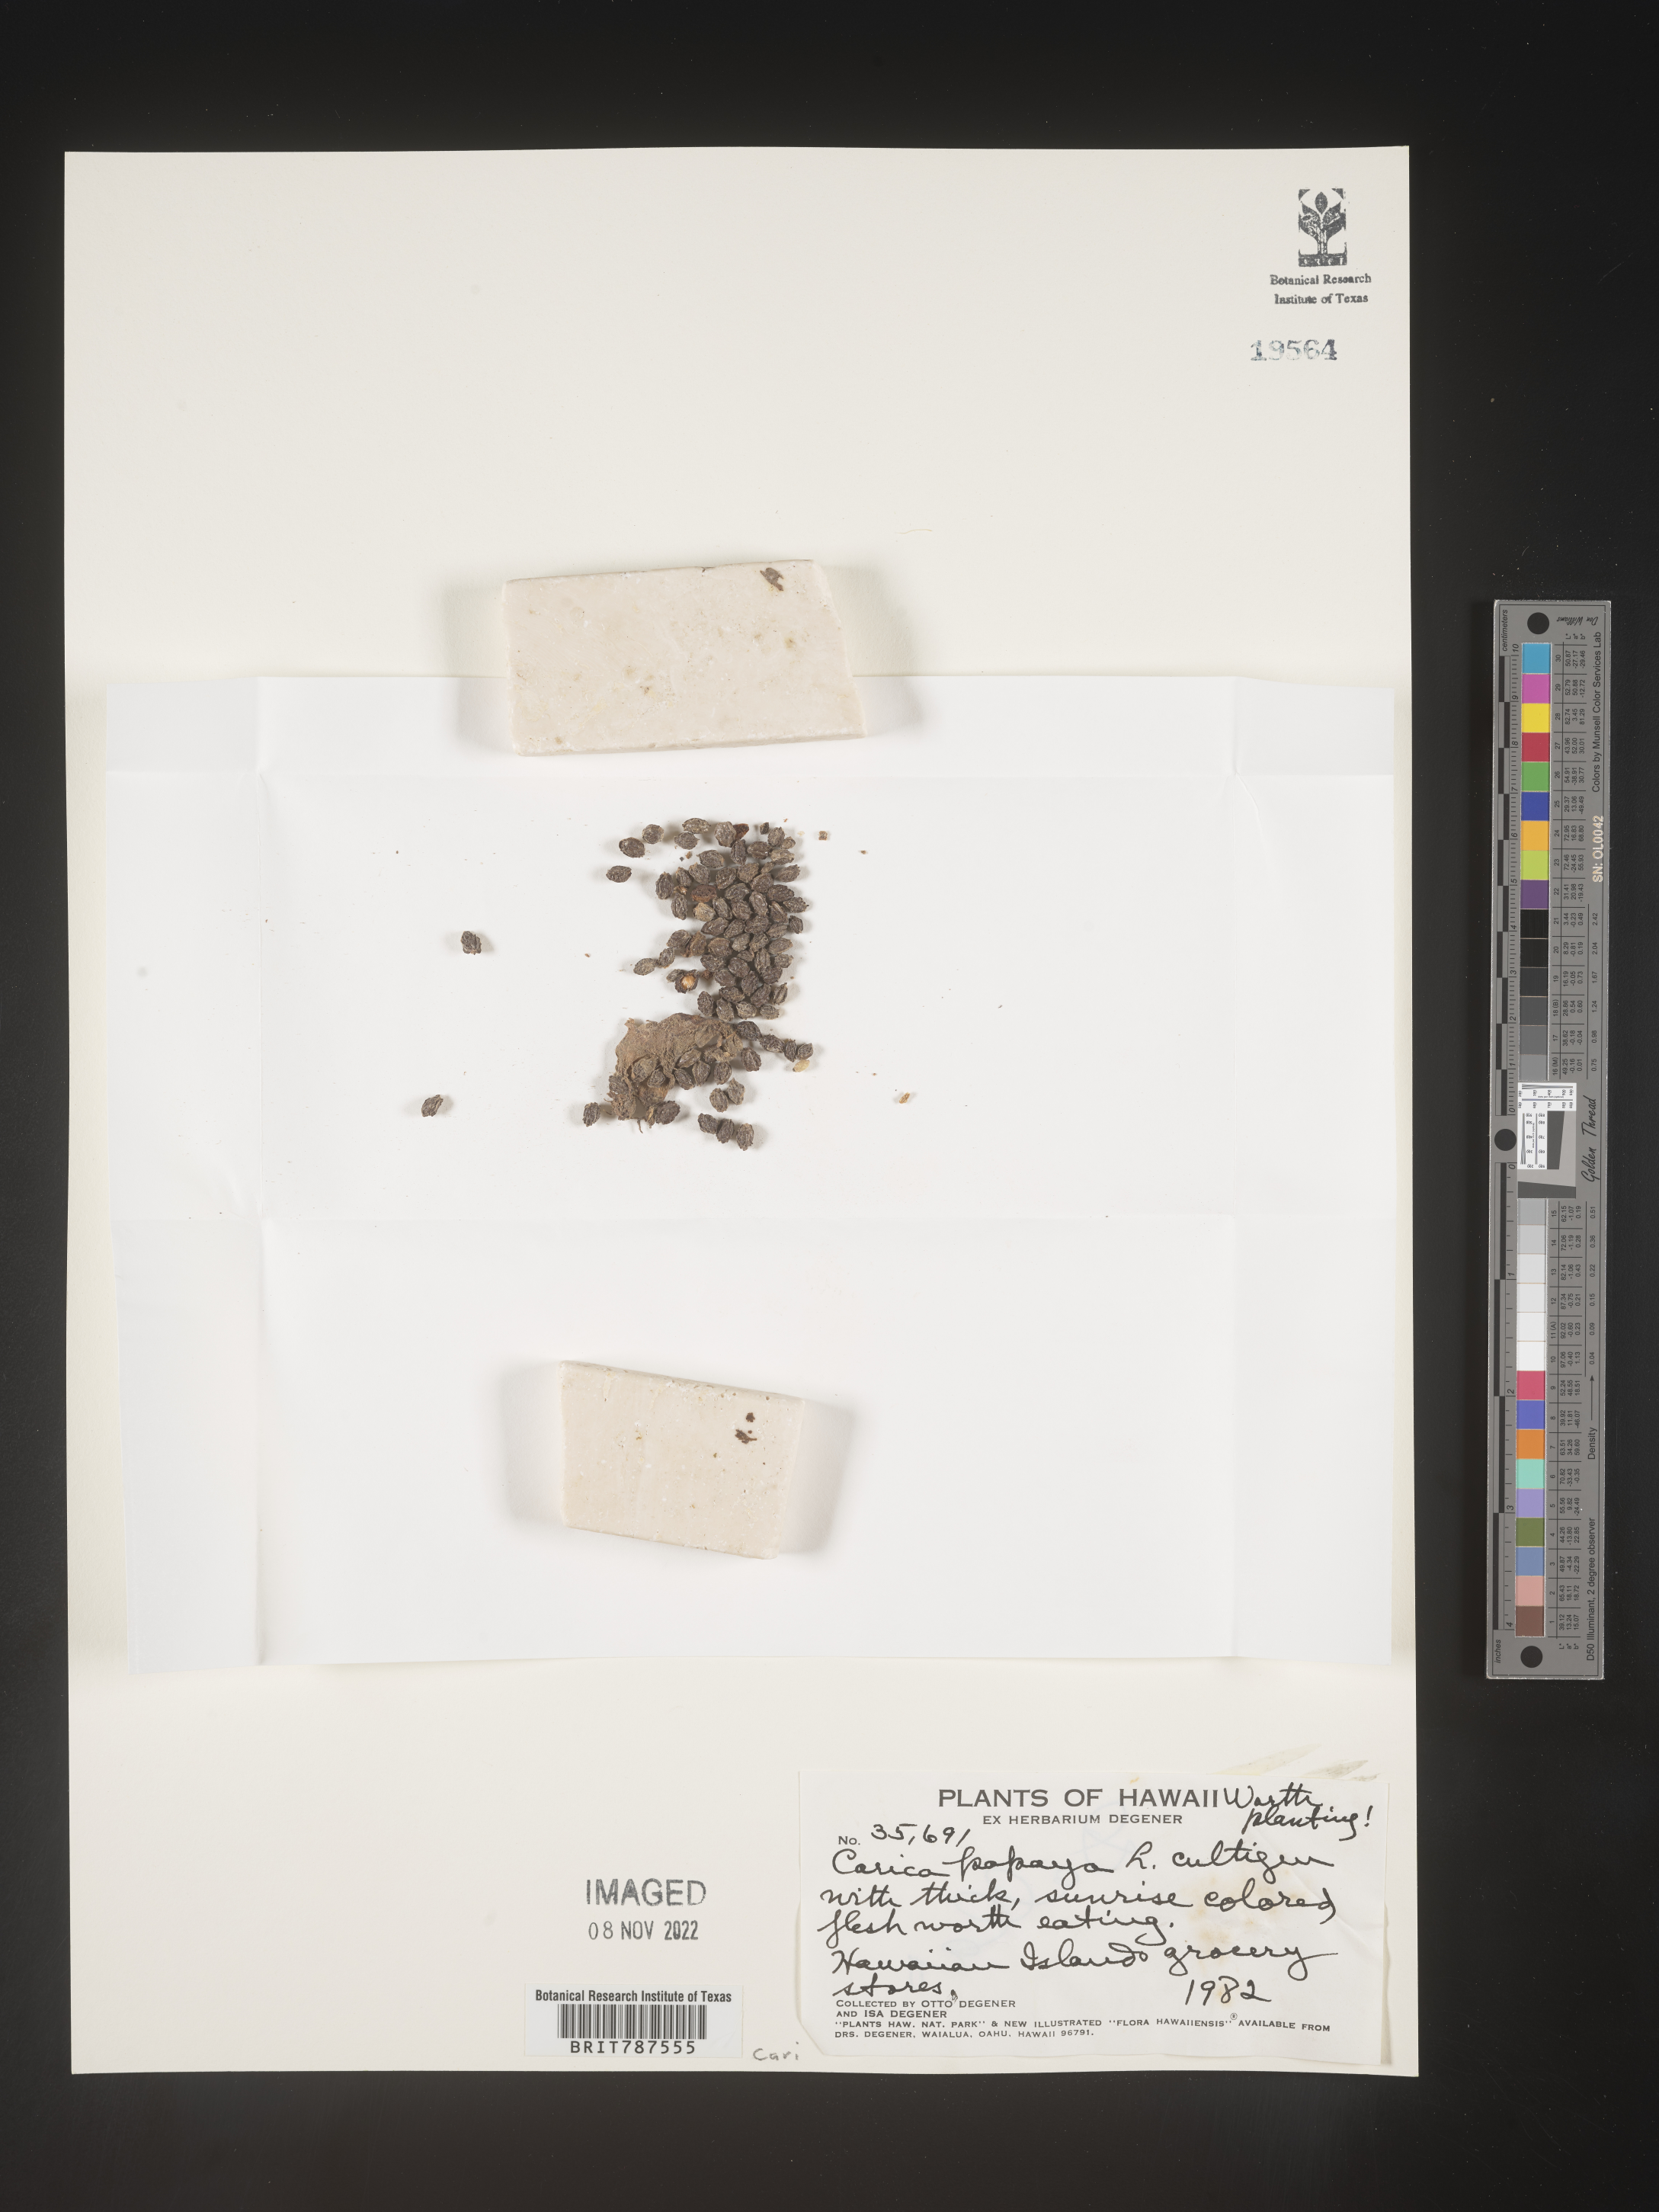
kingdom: Plantae
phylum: Tracheophyta
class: Magnoliopsida
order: Brassicales
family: Caricaceae
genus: Carica
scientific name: Carica
